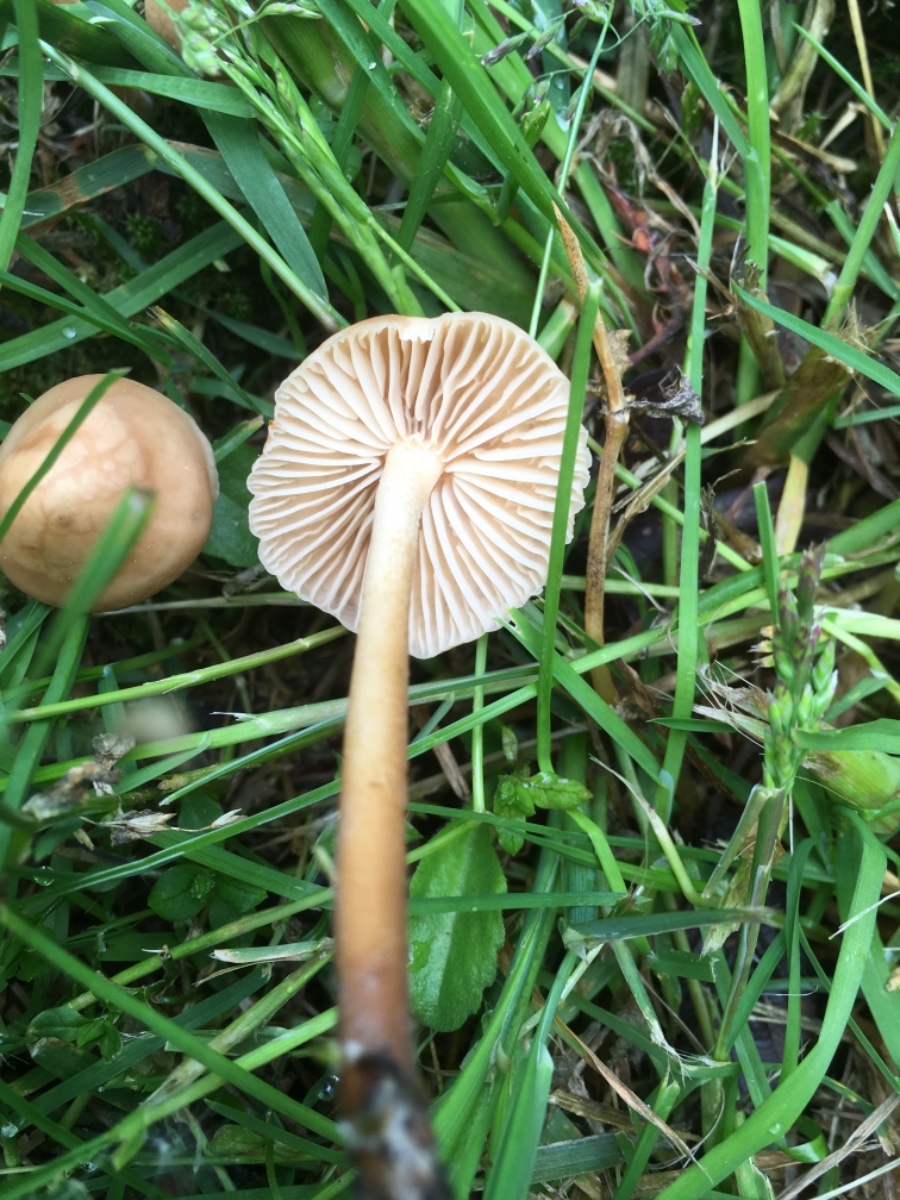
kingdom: Fungi
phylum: Basidiomycota
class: Agaricomycetes
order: Agaricales
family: Marasmiaceae
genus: Marasmius
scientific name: Marasmius oreades
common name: elledans-bruskhat
